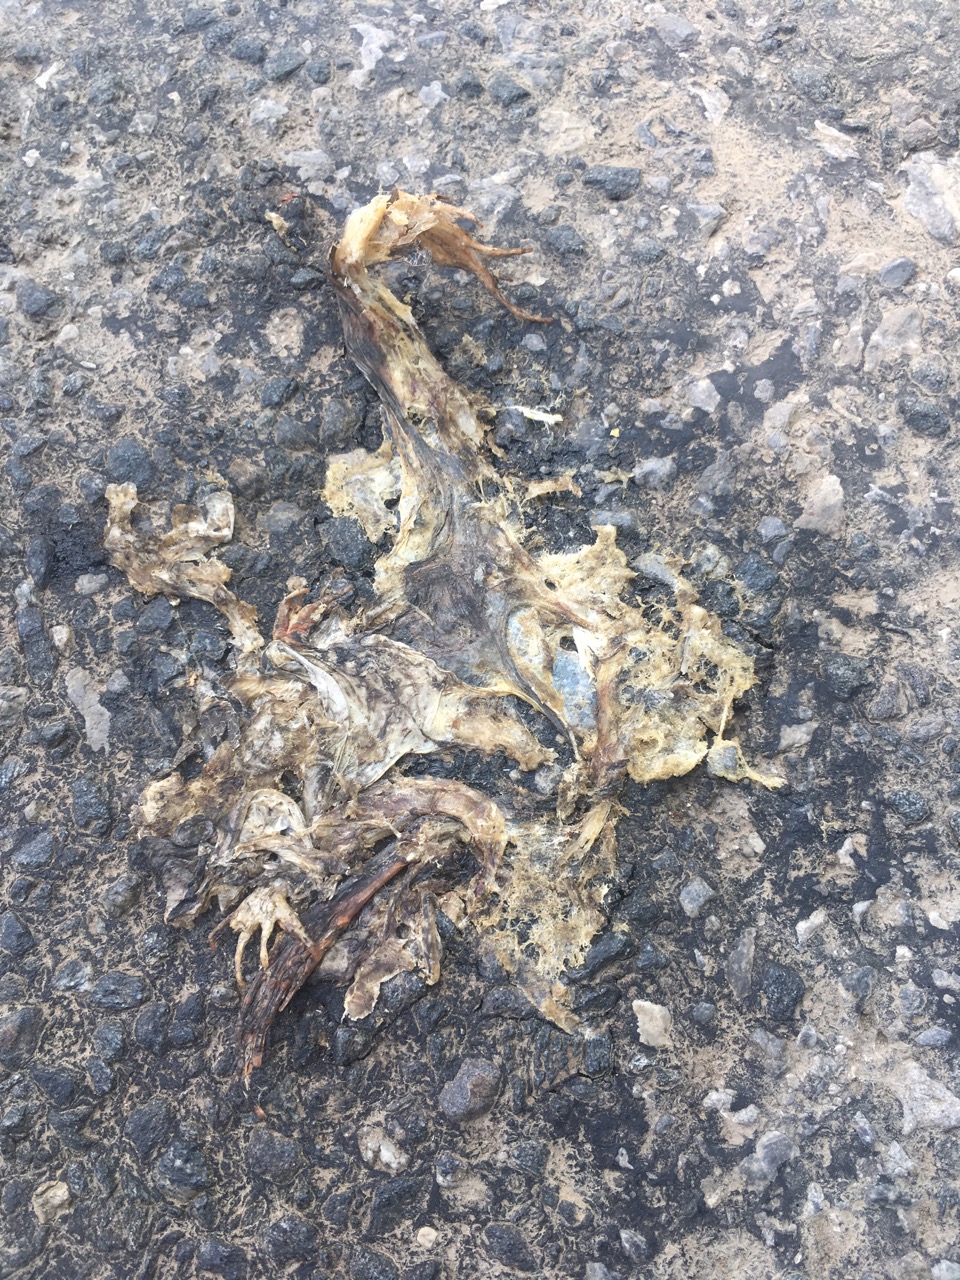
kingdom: Animalia
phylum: Chordata
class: Amphibia
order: Anura
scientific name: Anura
